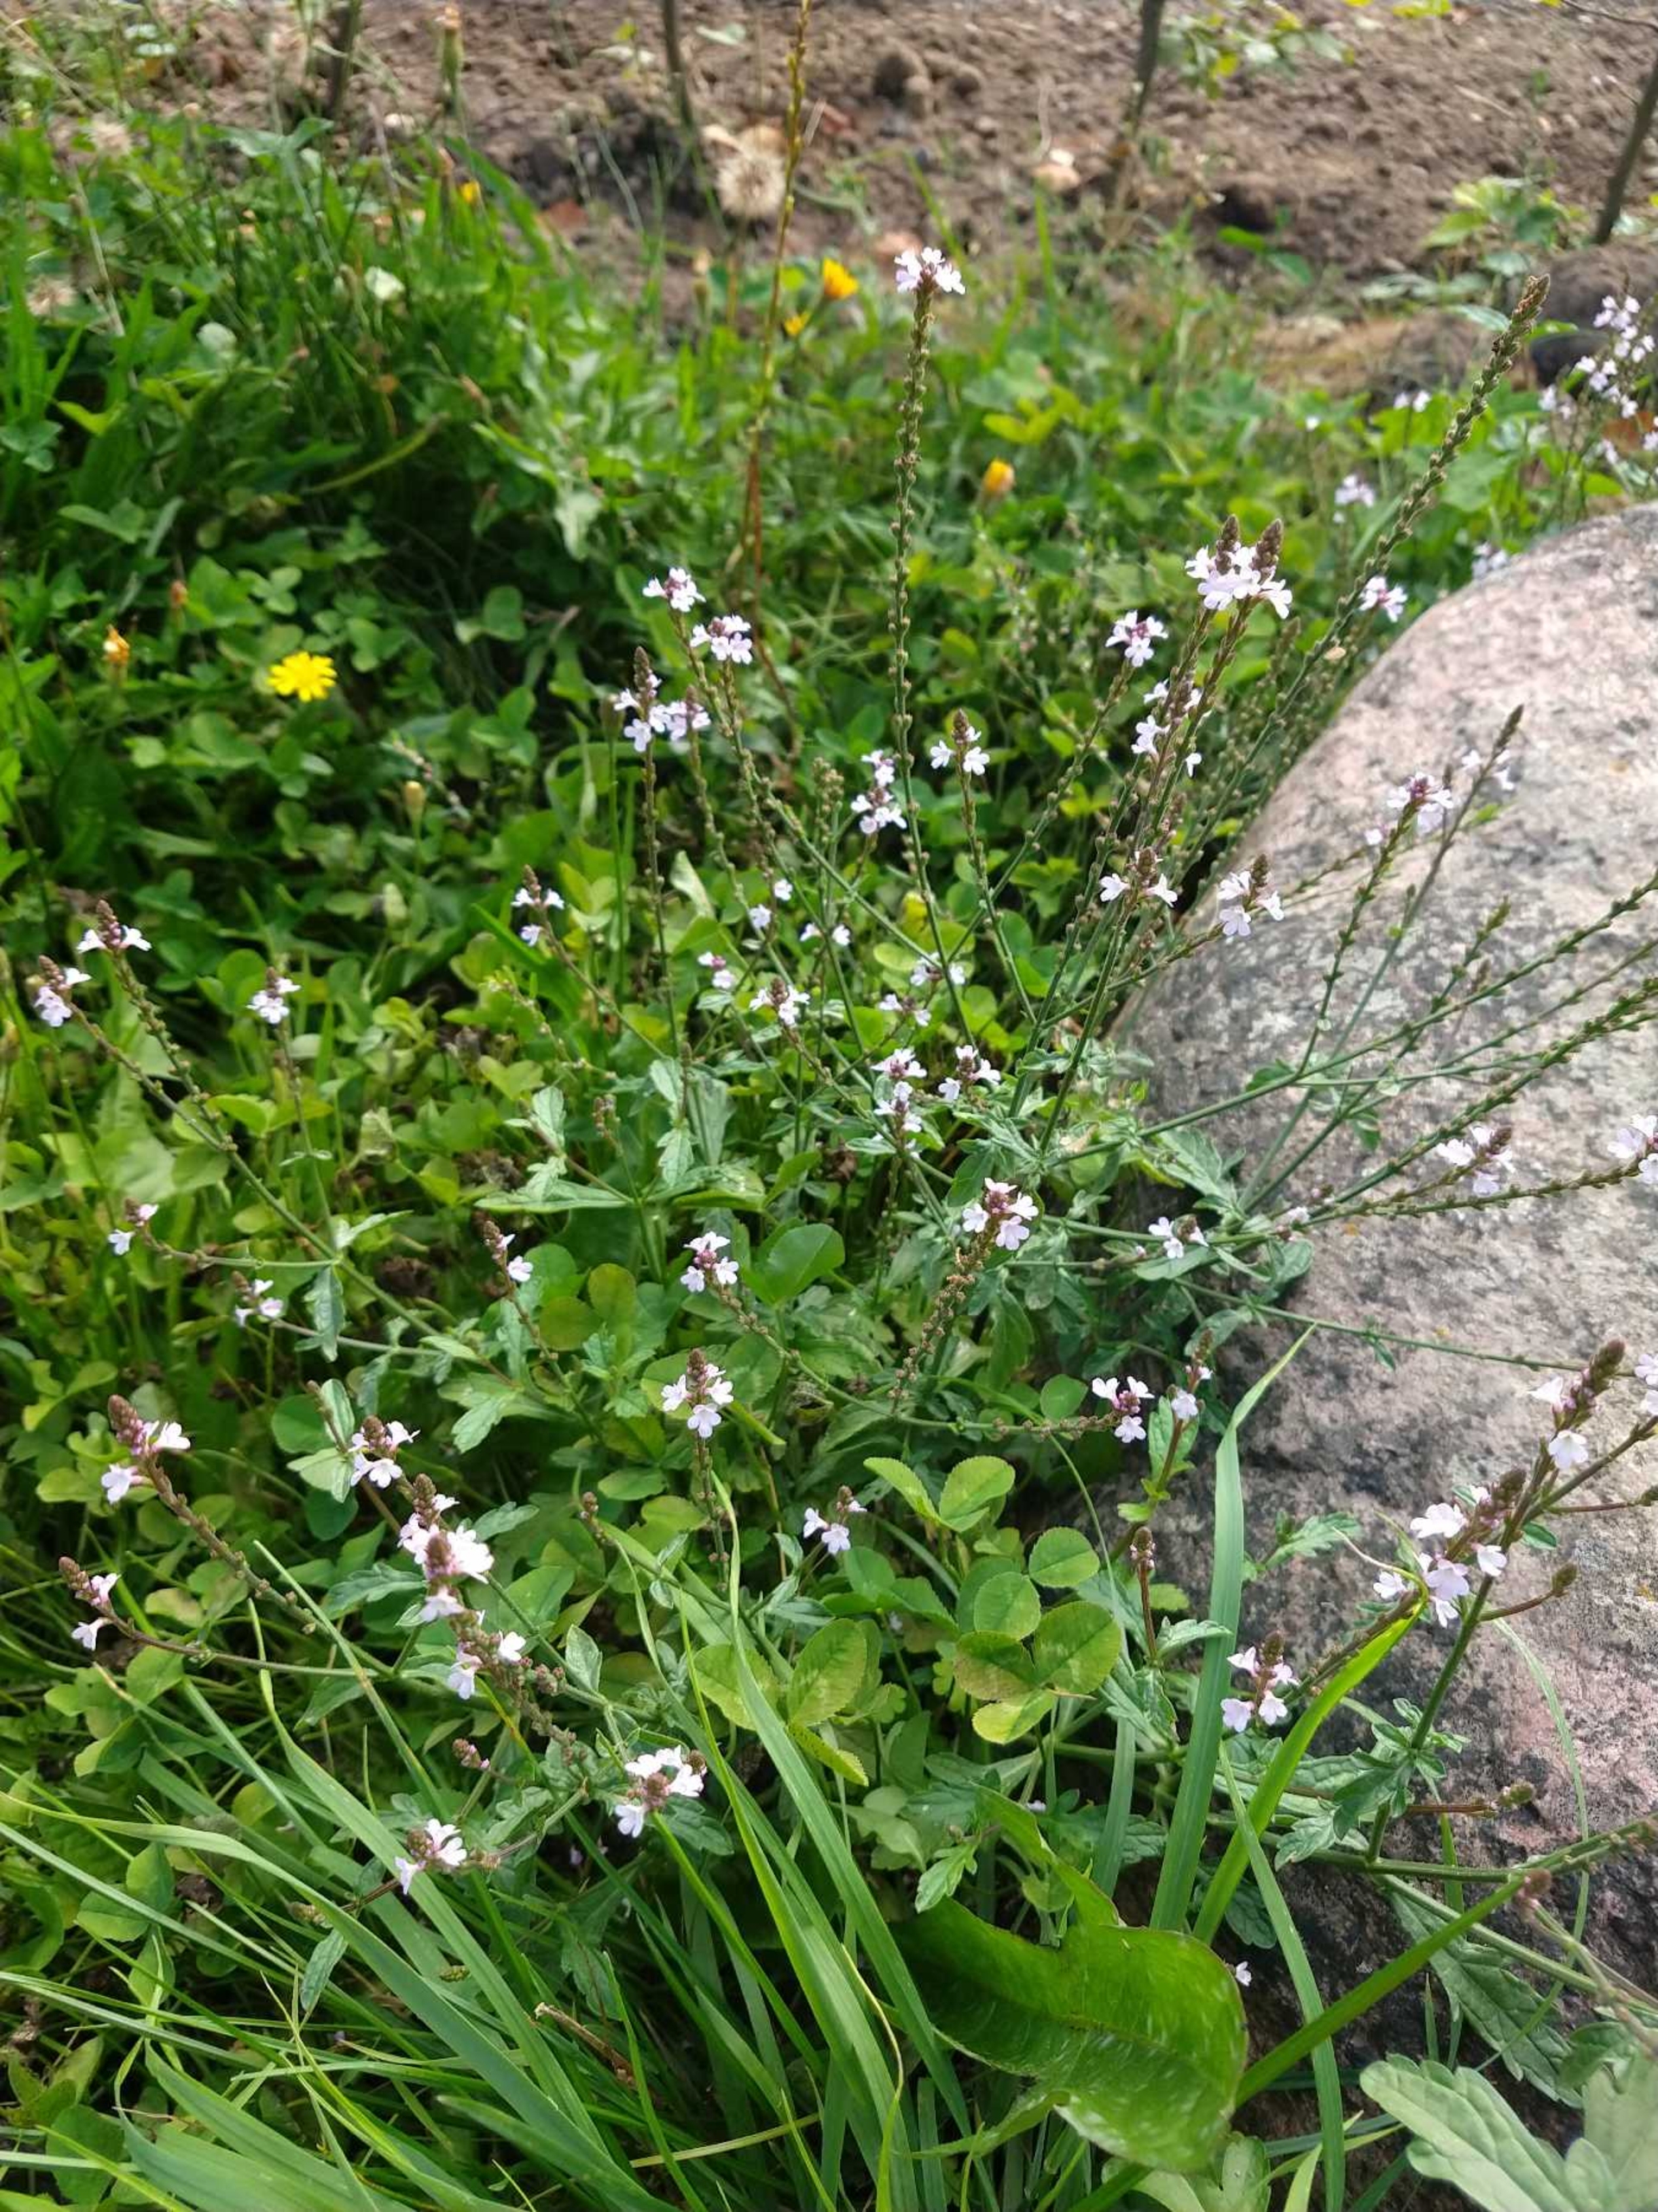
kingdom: Plantae
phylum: Tracheophyta
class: Magnoliopsida
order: Lamiales
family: Verbenaceae
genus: Verbena
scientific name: Verbena officinalis
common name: Læge-jernurt
